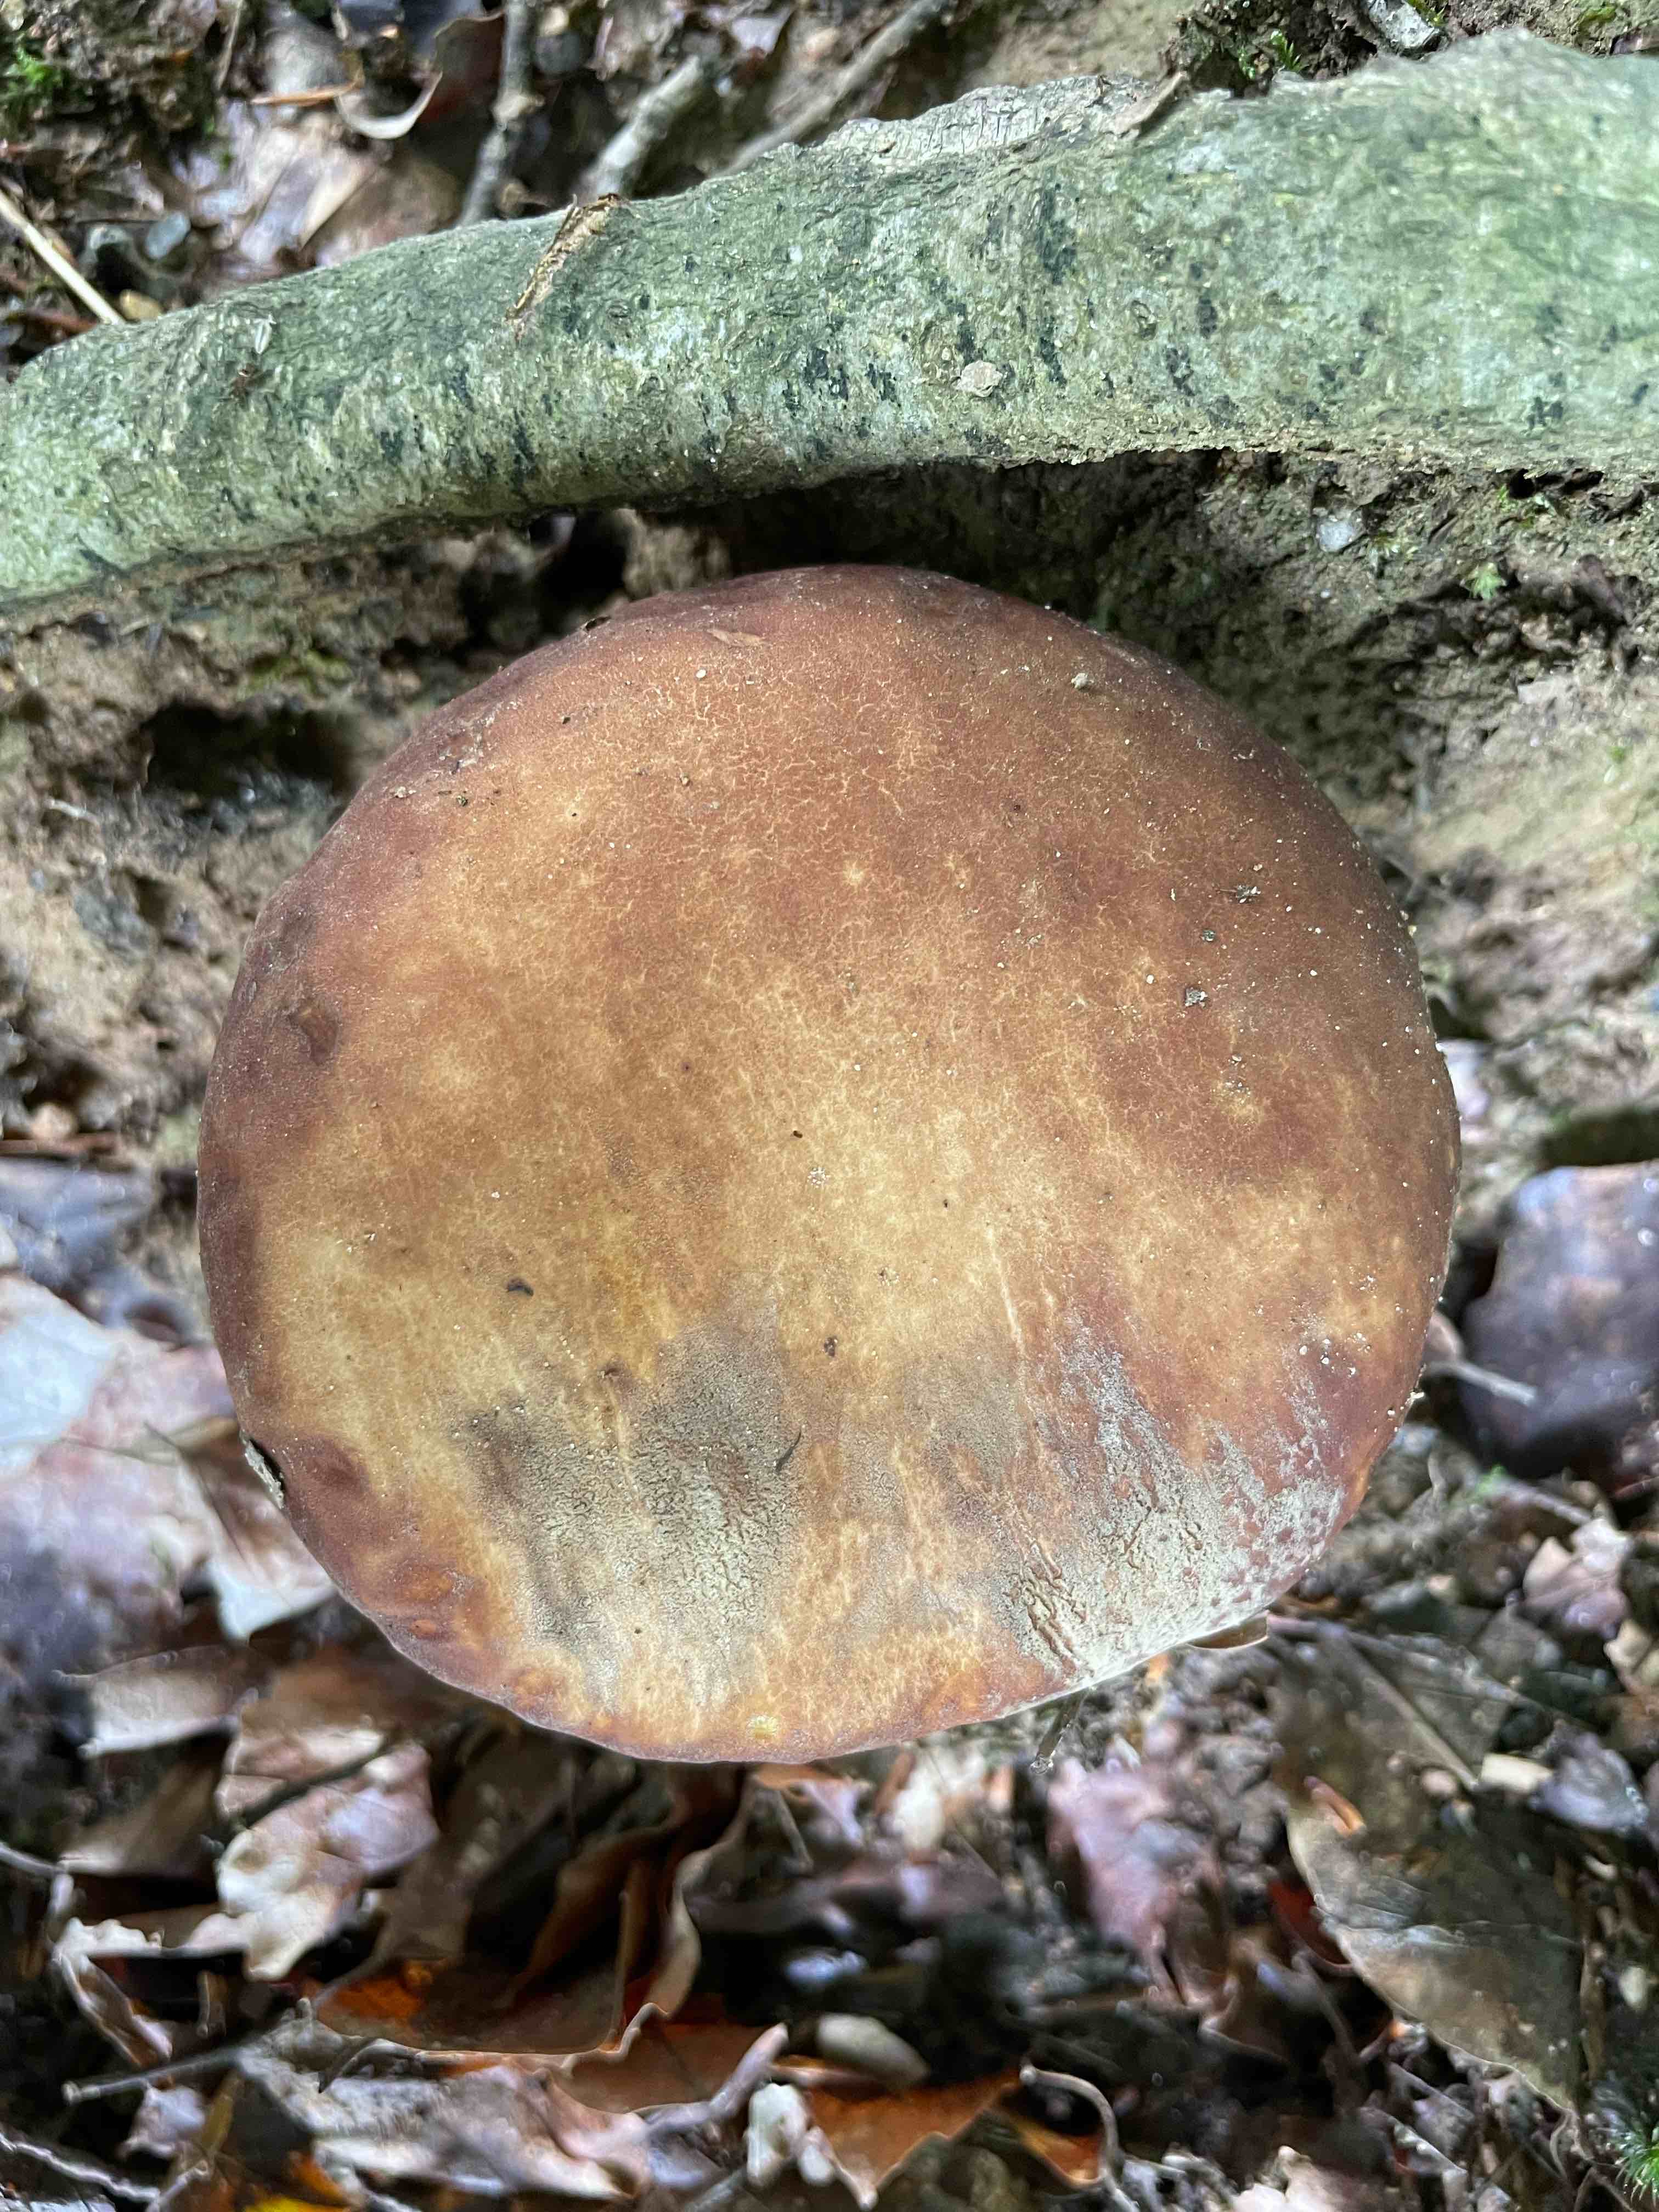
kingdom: Fungi
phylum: Basidiomycota
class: Agaricomycetes
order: Boletales
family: Boletaceae
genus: Boletus
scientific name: Boletus edulis
